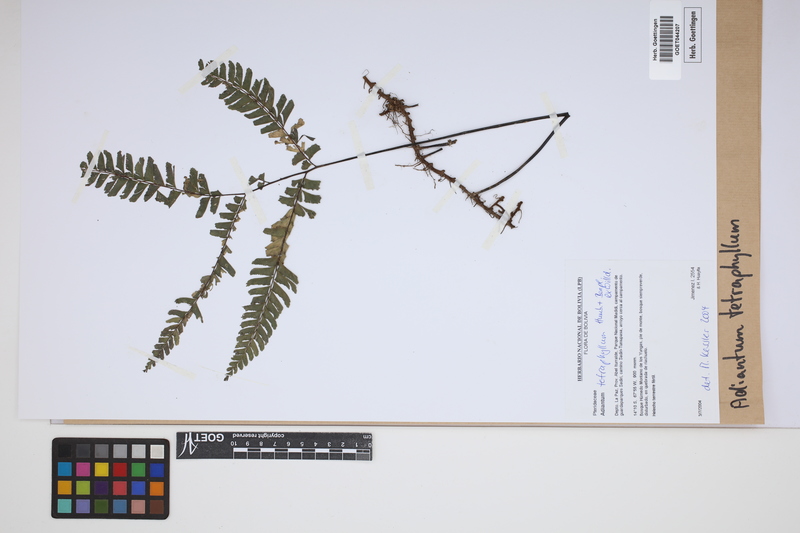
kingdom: Plantae
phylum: Tracheophyta
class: Polypodiopsida
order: Polypodiales
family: Pteridaceae
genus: Adiantum
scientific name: Adiantum tetraphyllum
